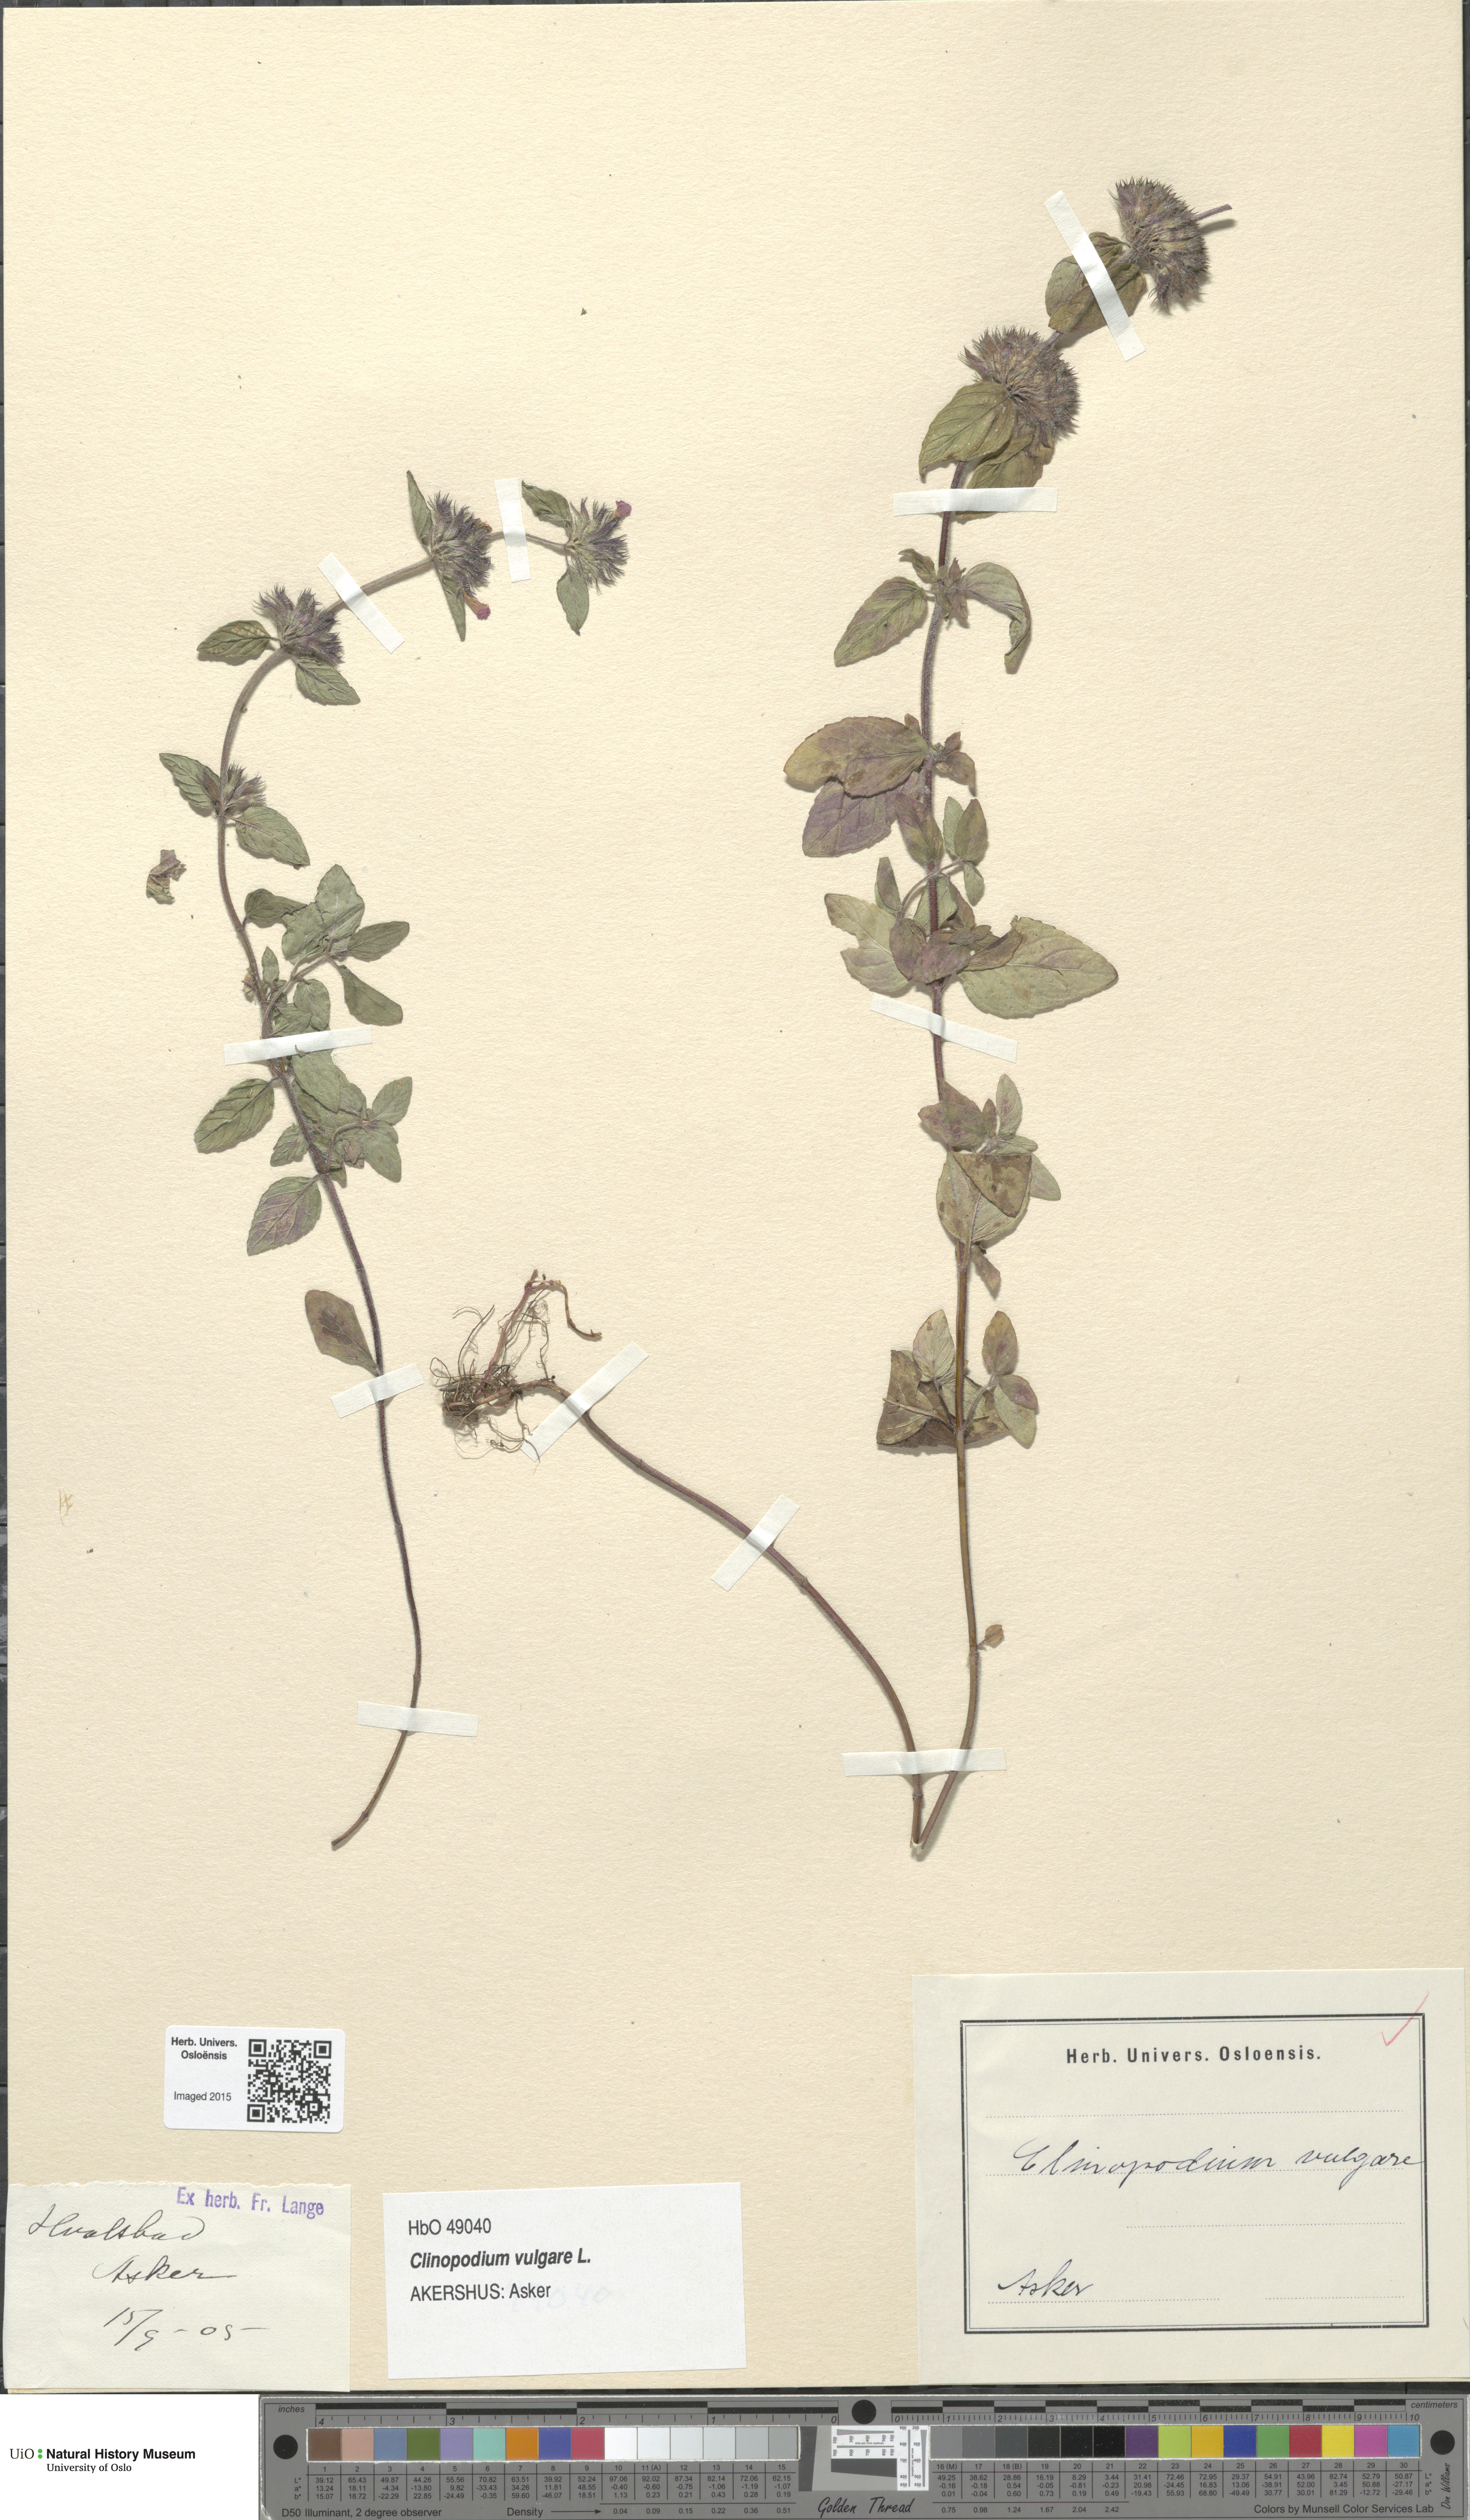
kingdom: Plantae
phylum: Tracheophyta
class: Magnoliopsida
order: Lamiales
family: Lamiaceae
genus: Clinopodium
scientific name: Clinopodium vulgare
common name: Wild basil
